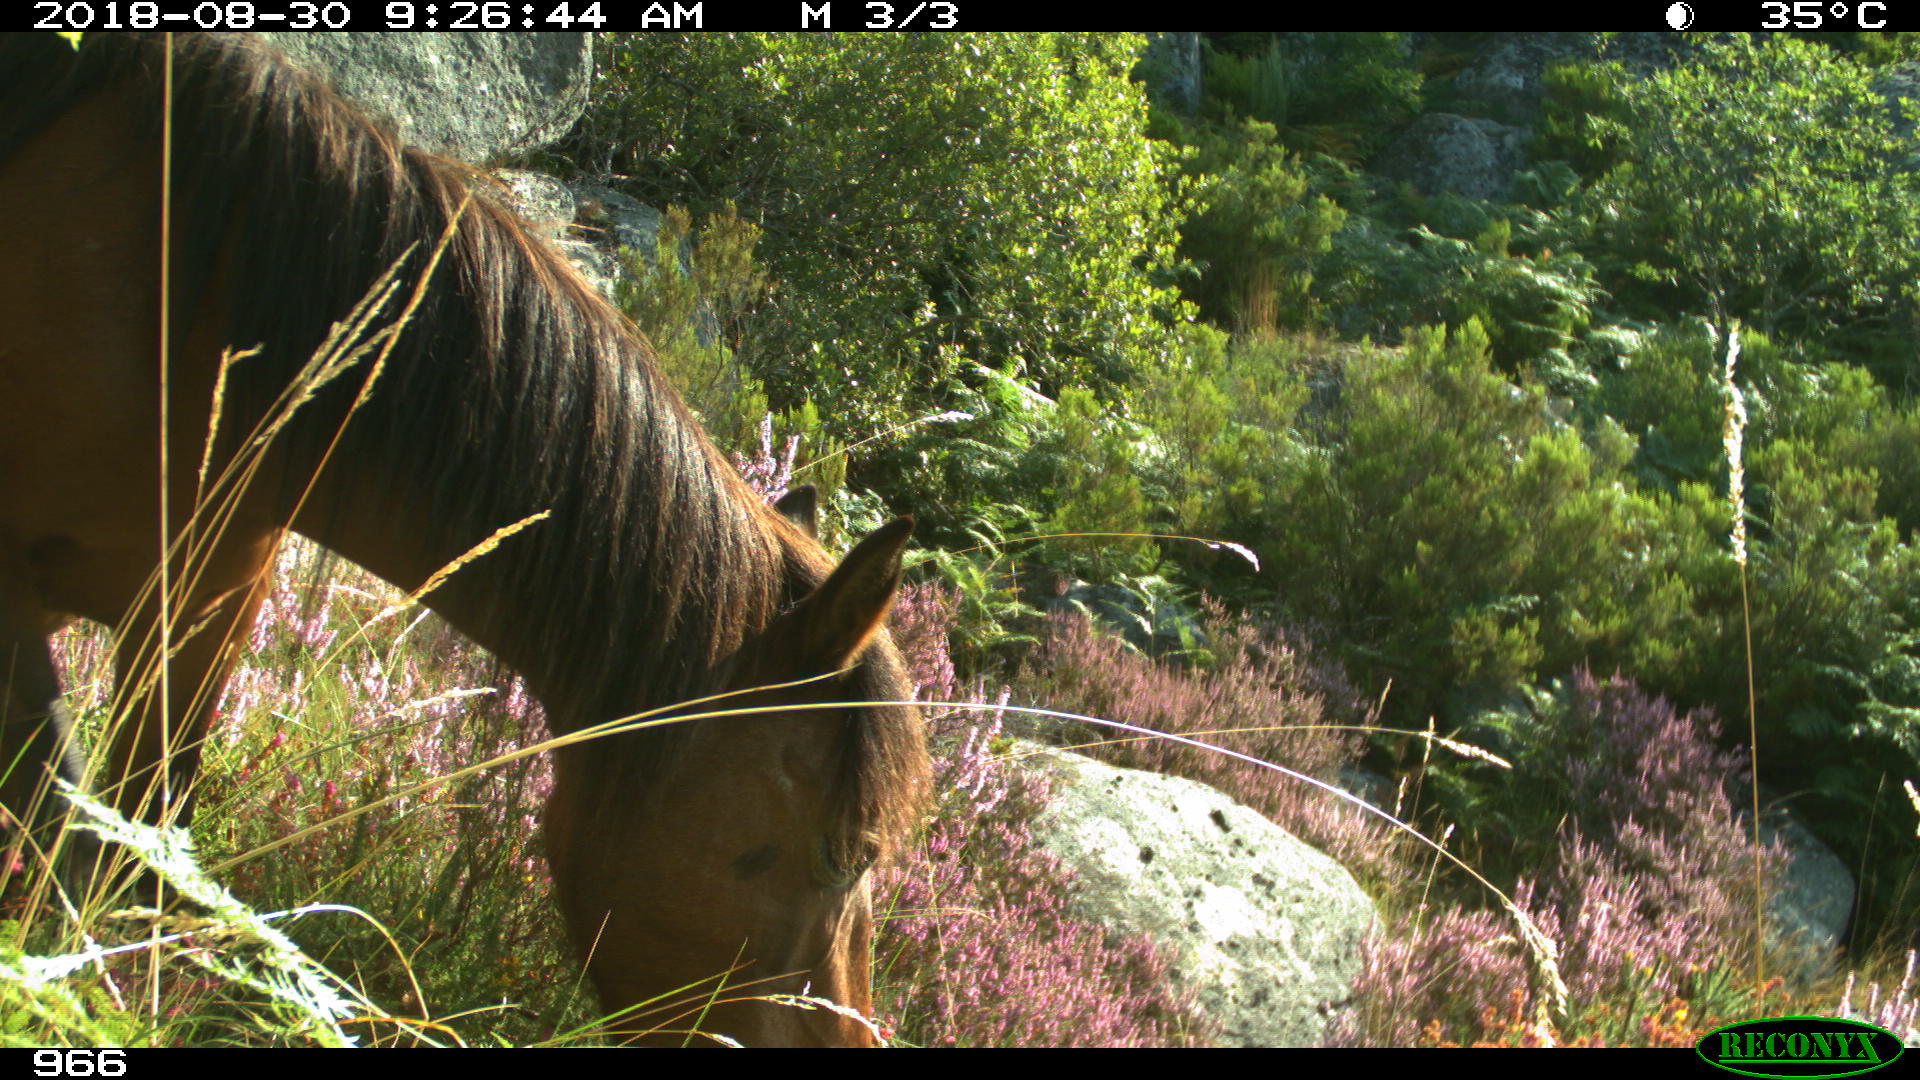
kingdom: Animalia
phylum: Chordata
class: Mammalia
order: Perissodactyla
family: Equidae
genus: Equus
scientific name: Equus caballus
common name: Horse
